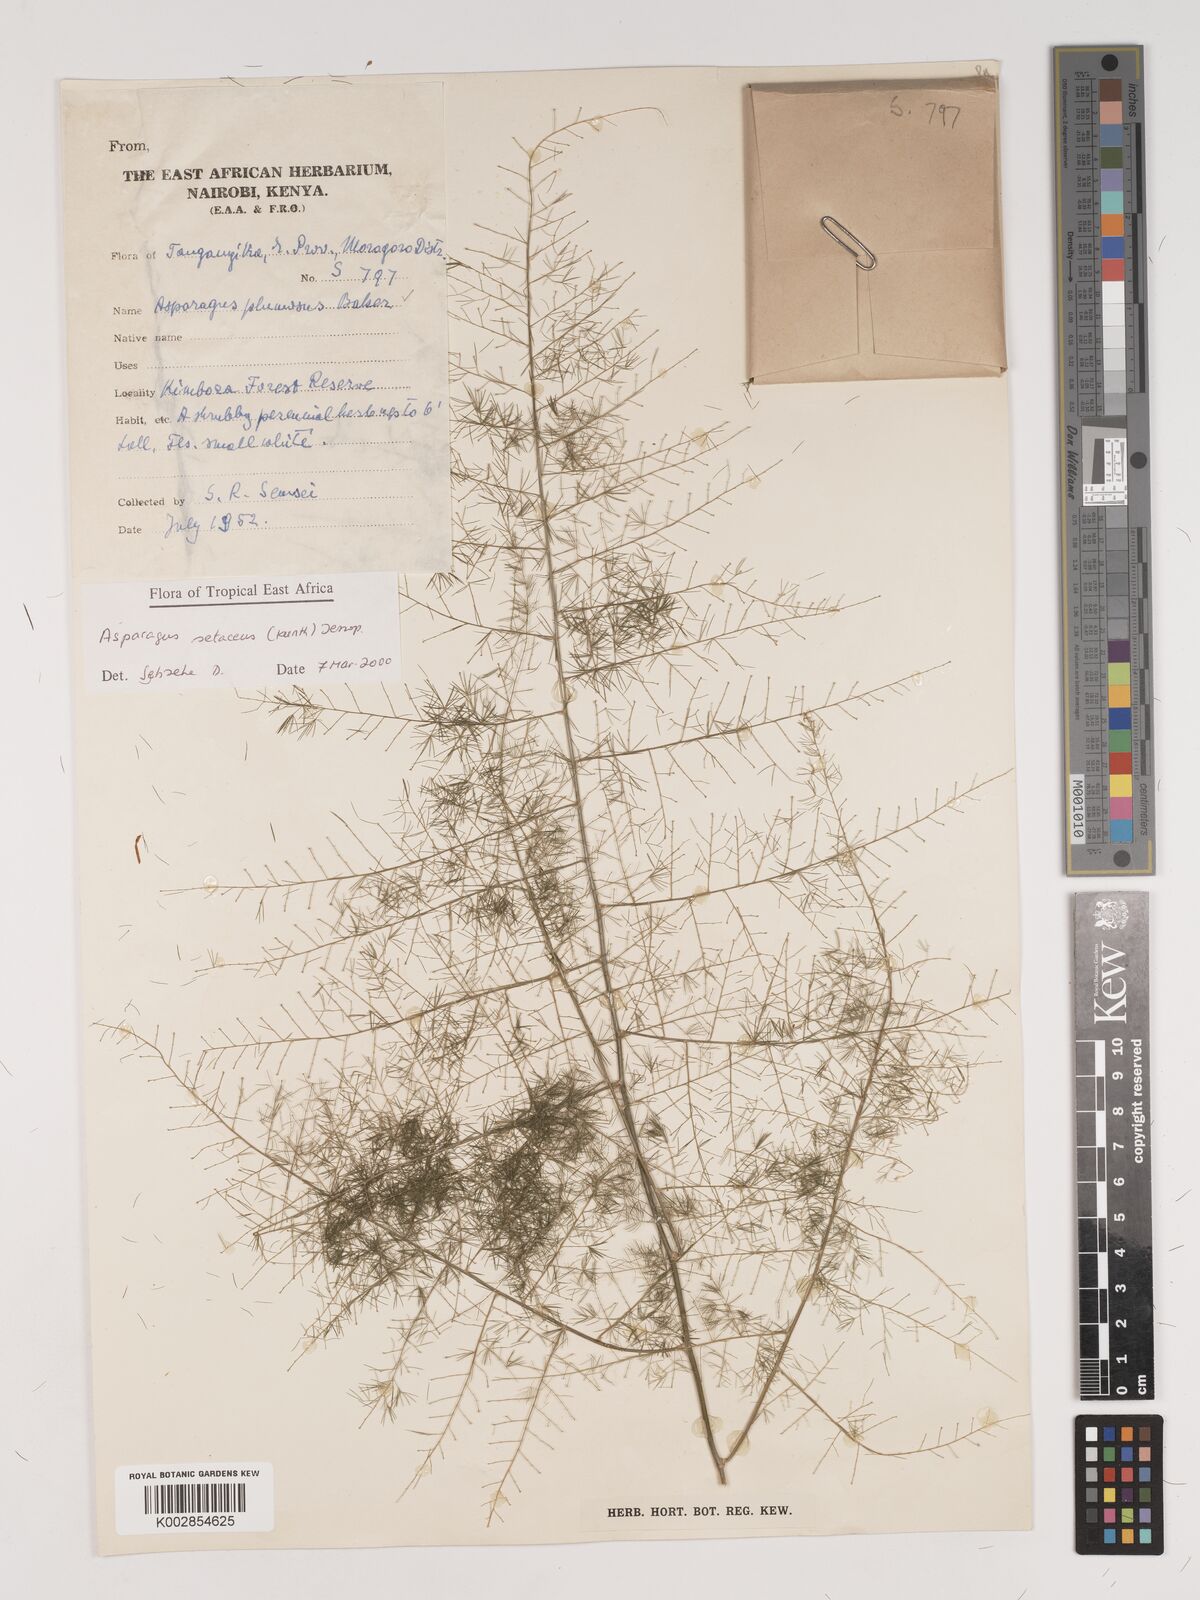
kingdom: Plantae
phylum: Tracheophyta
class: Liliopsida
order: Asparagales
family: Asparagaceae
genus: Asparagus
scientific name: Asparagus setaceus
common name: Common asparagus fern
